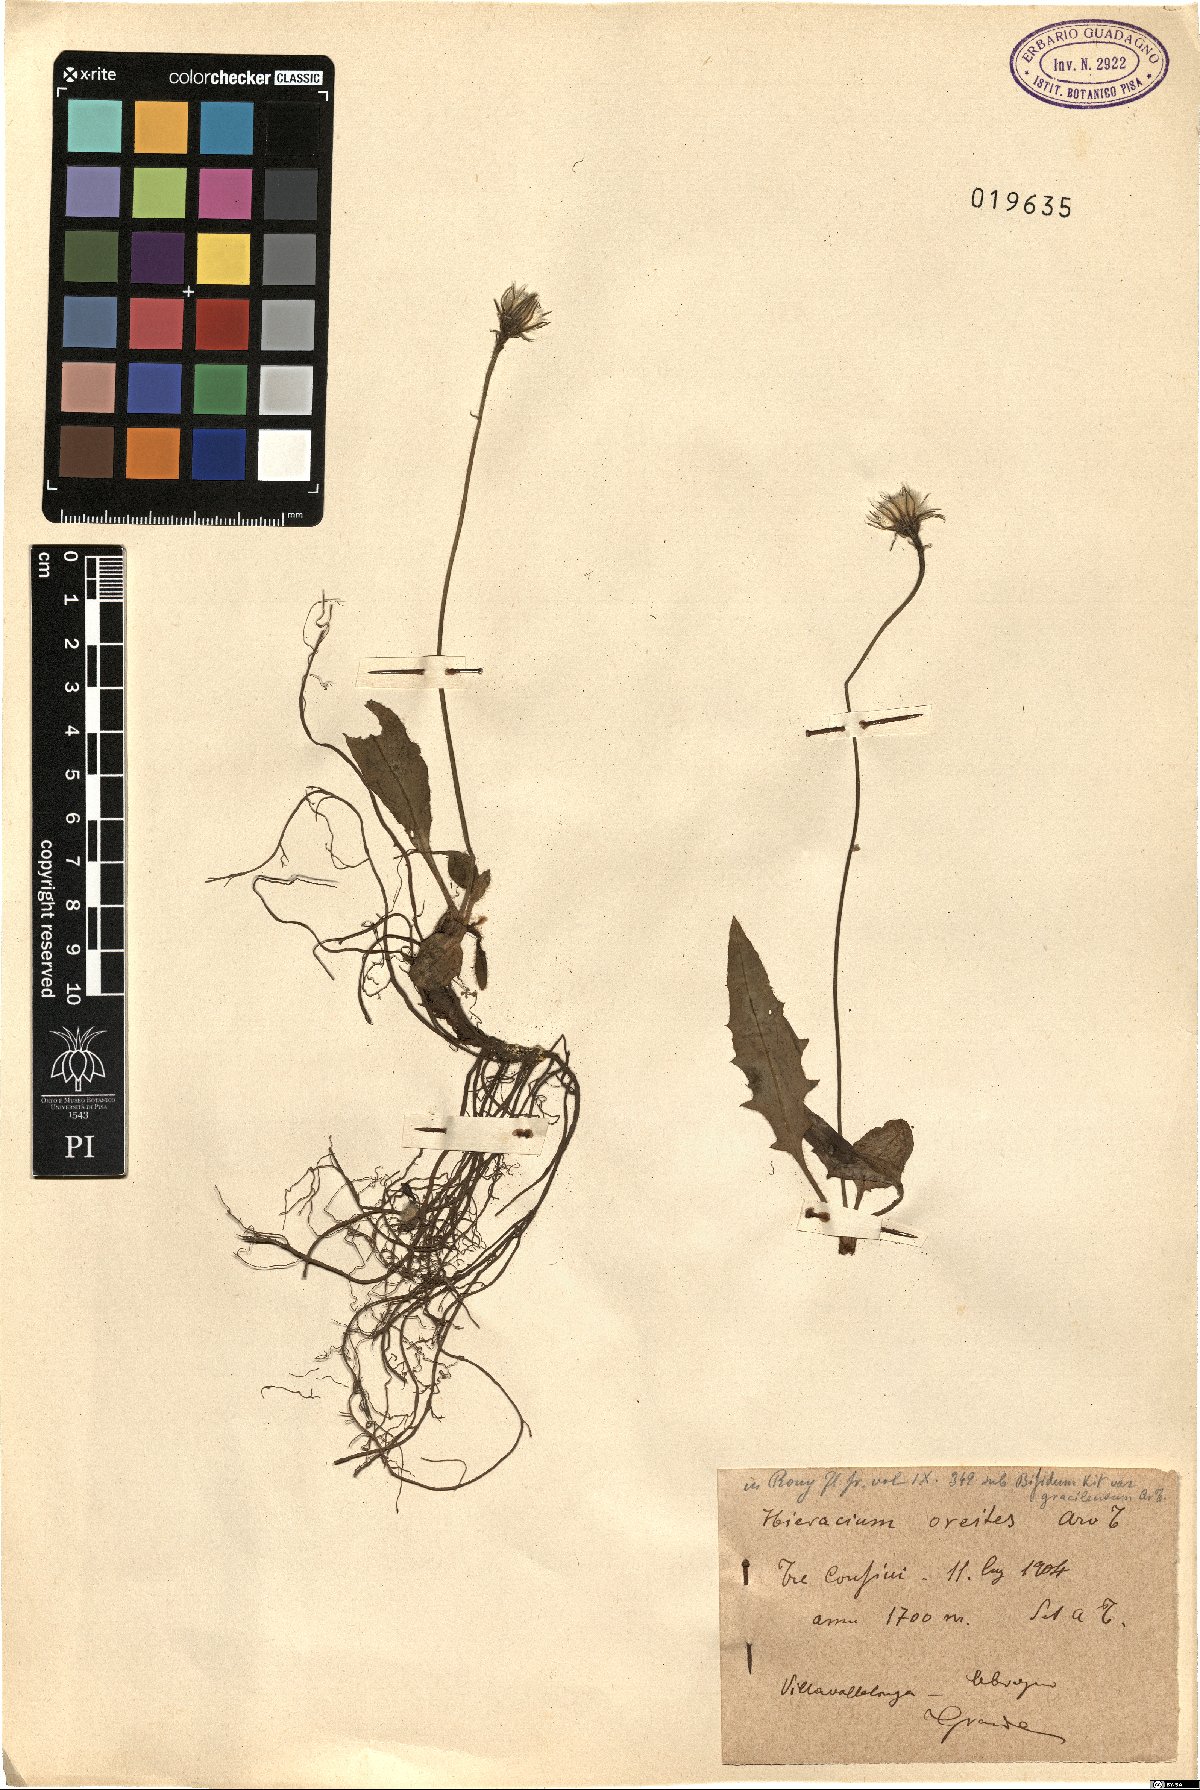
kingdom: Plantae
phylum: Tracheophyta
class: Magnoliopsida
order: Asterales
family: Asteraceae
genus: Hieracium
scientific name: Hieracium bifidum
